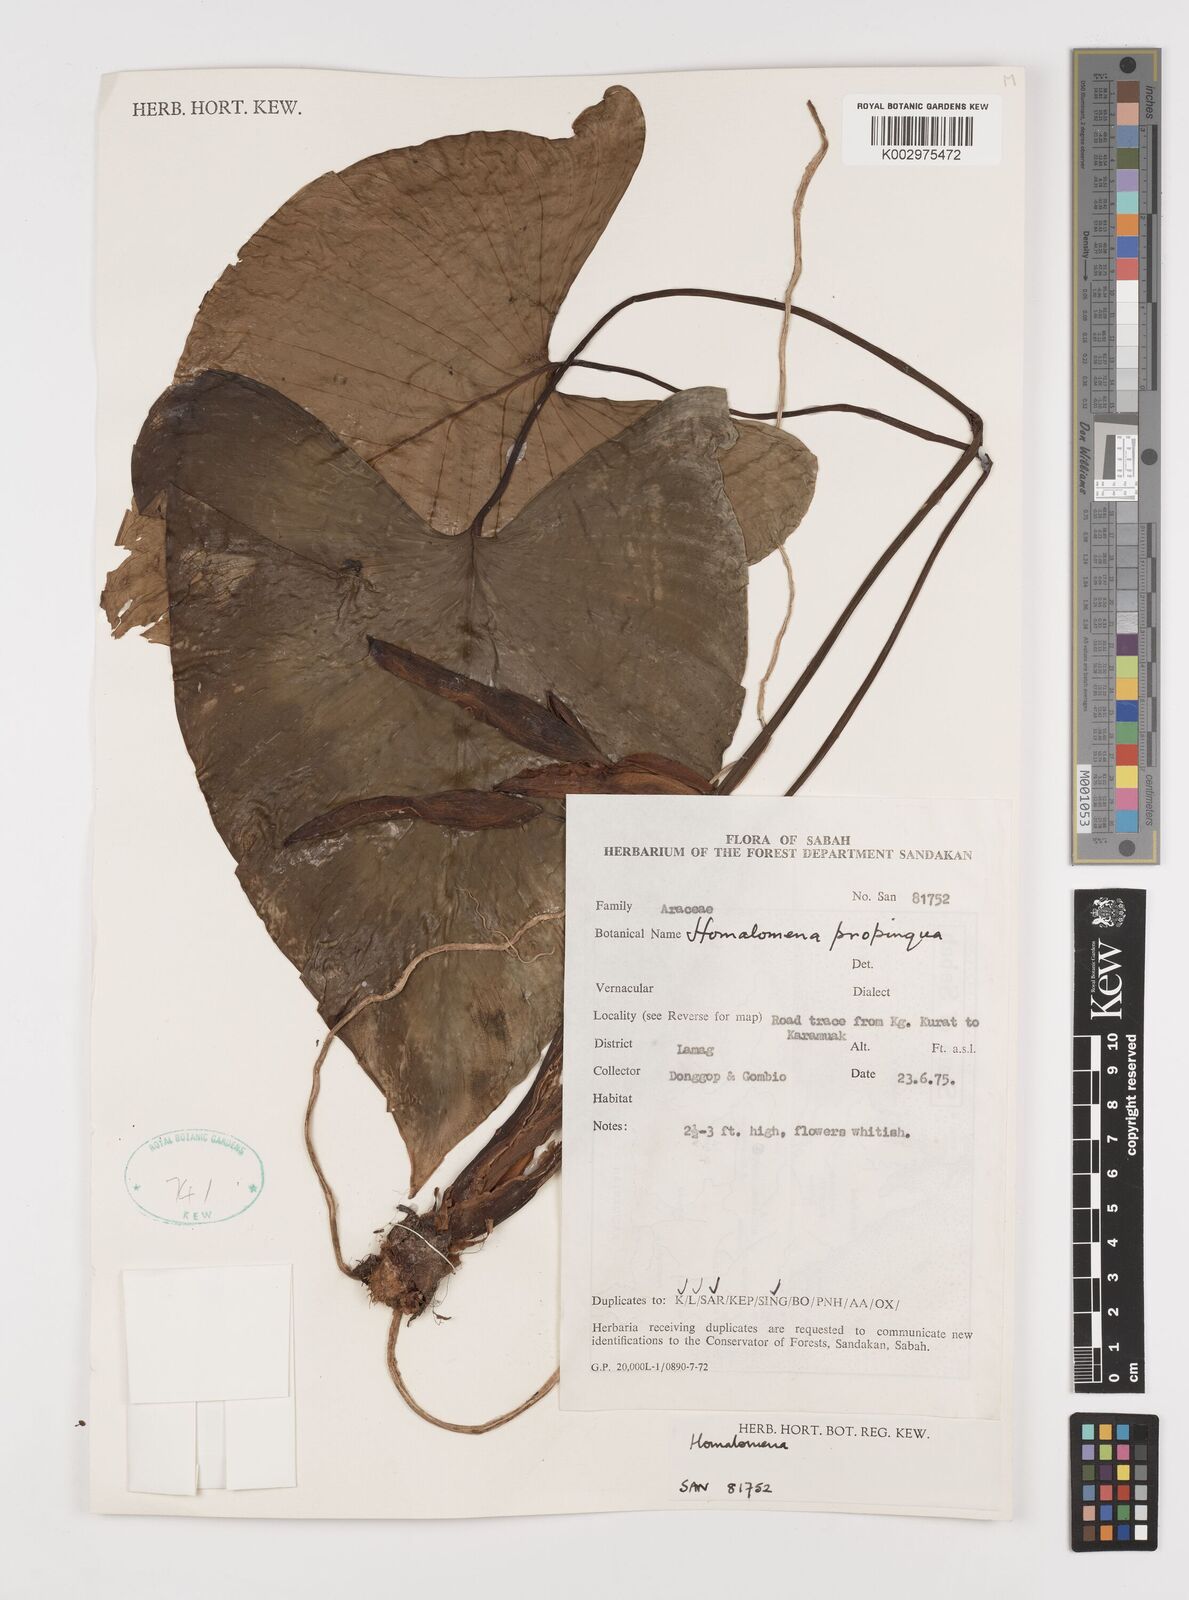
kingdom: Plantae
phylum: Tracheophyta
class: Liliopsida
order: Alismatales
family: Araceae
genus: Homalomena
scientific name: Homalomena humilis
